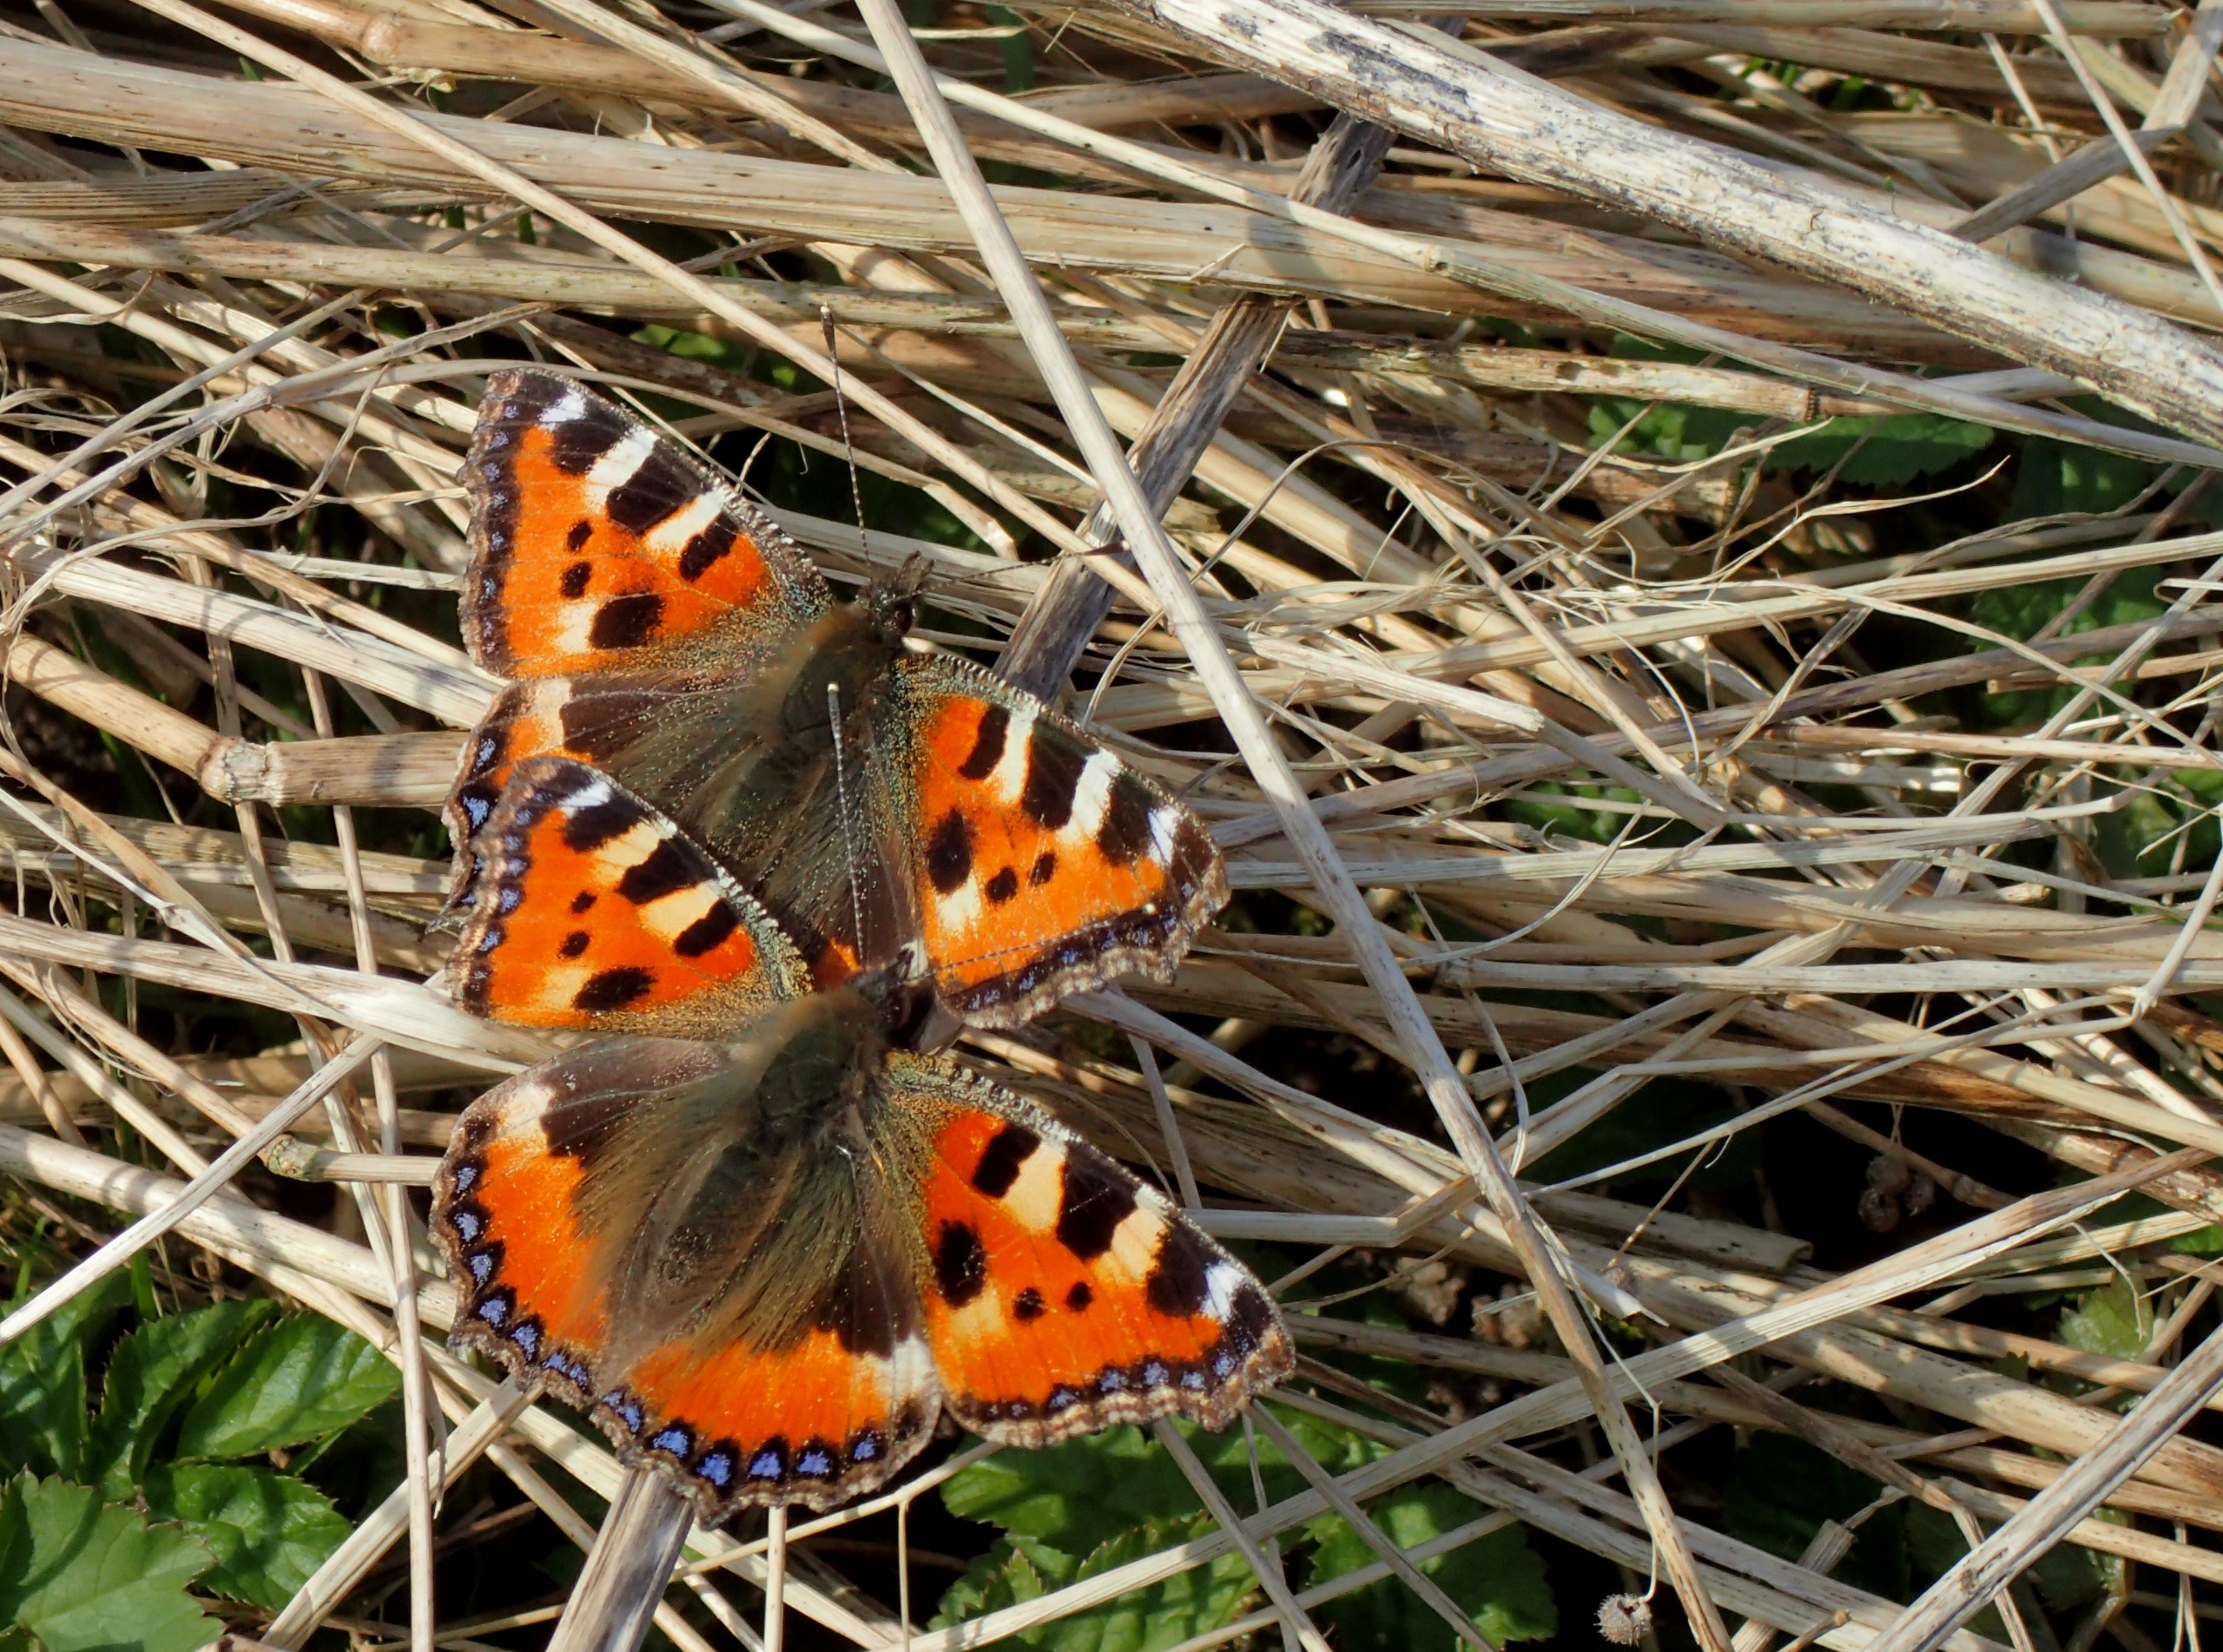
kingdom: Animalia
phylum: Arthropoda
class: Insecta
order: Lepidoptera
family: Nymphalidae
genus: Aglais
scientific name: Aglais urticae
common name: Nældens takvinge
